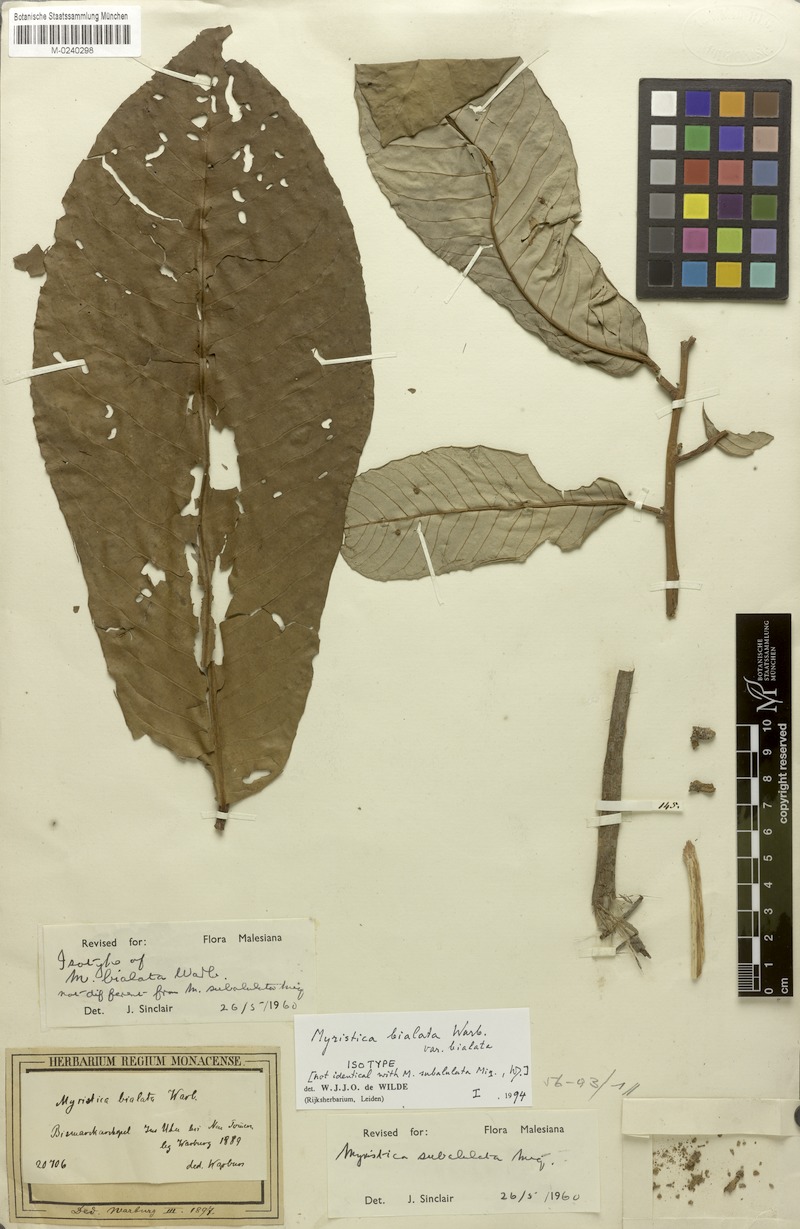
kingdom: Plantae
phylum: Tracheophyta
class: Magnoliopsida
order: Magnoliales
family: Myristicaceae
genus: Myristica
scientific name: Myristica bialata
